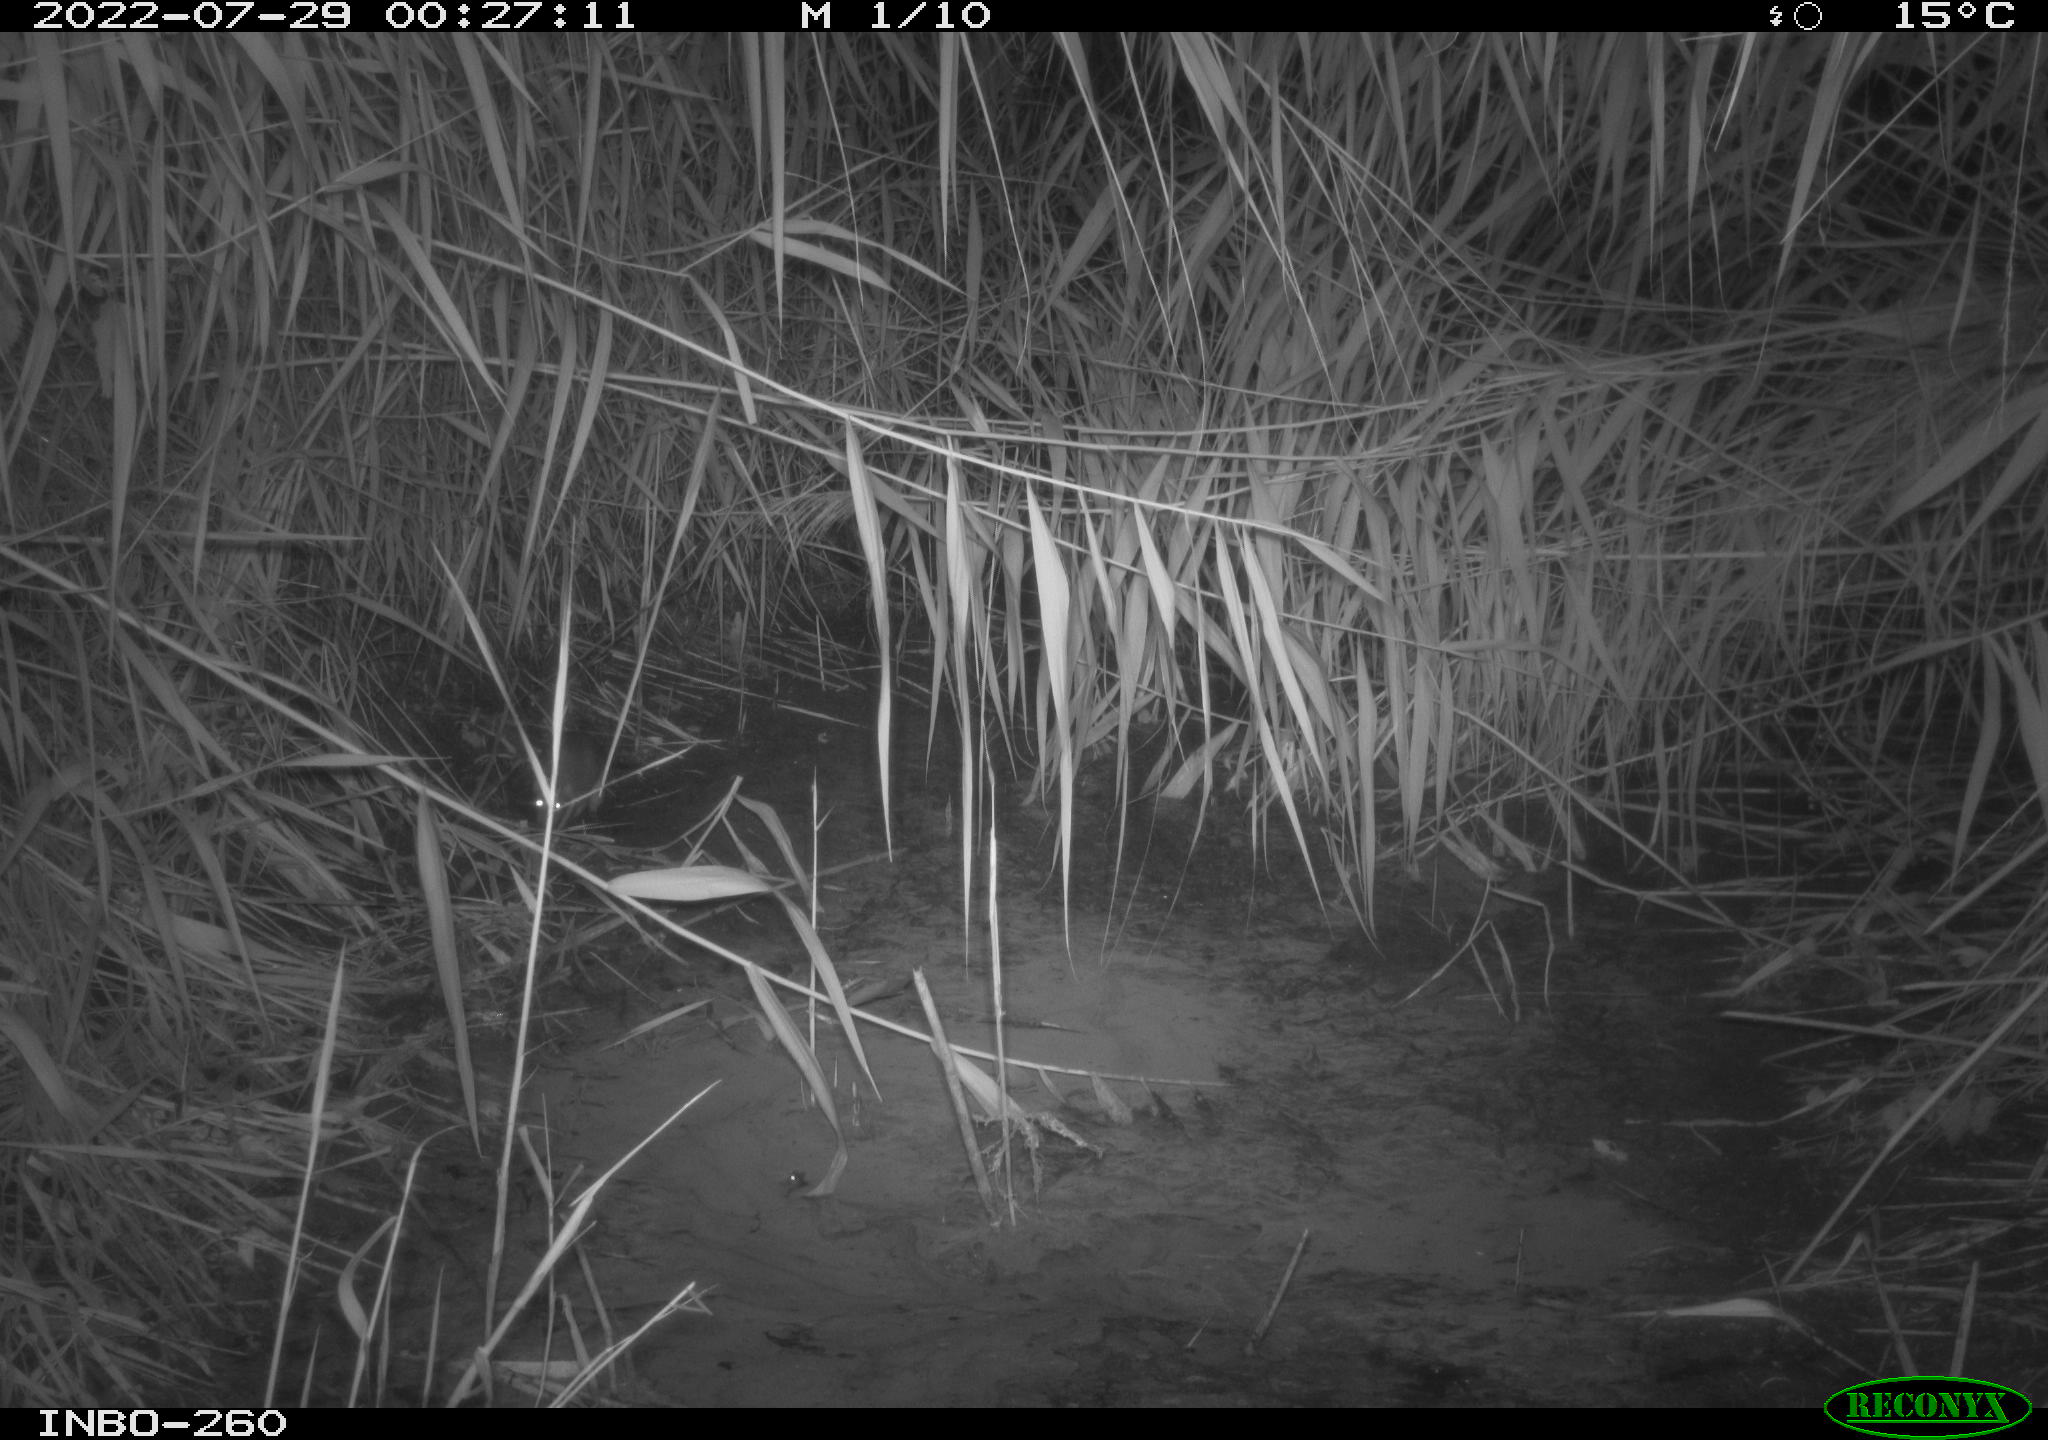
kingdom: Animalia
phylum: Chordata
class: Mammalia
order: Rodentia
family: Muridae
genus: Rattus
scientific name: Rattus norvegicus
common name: Brown rat
